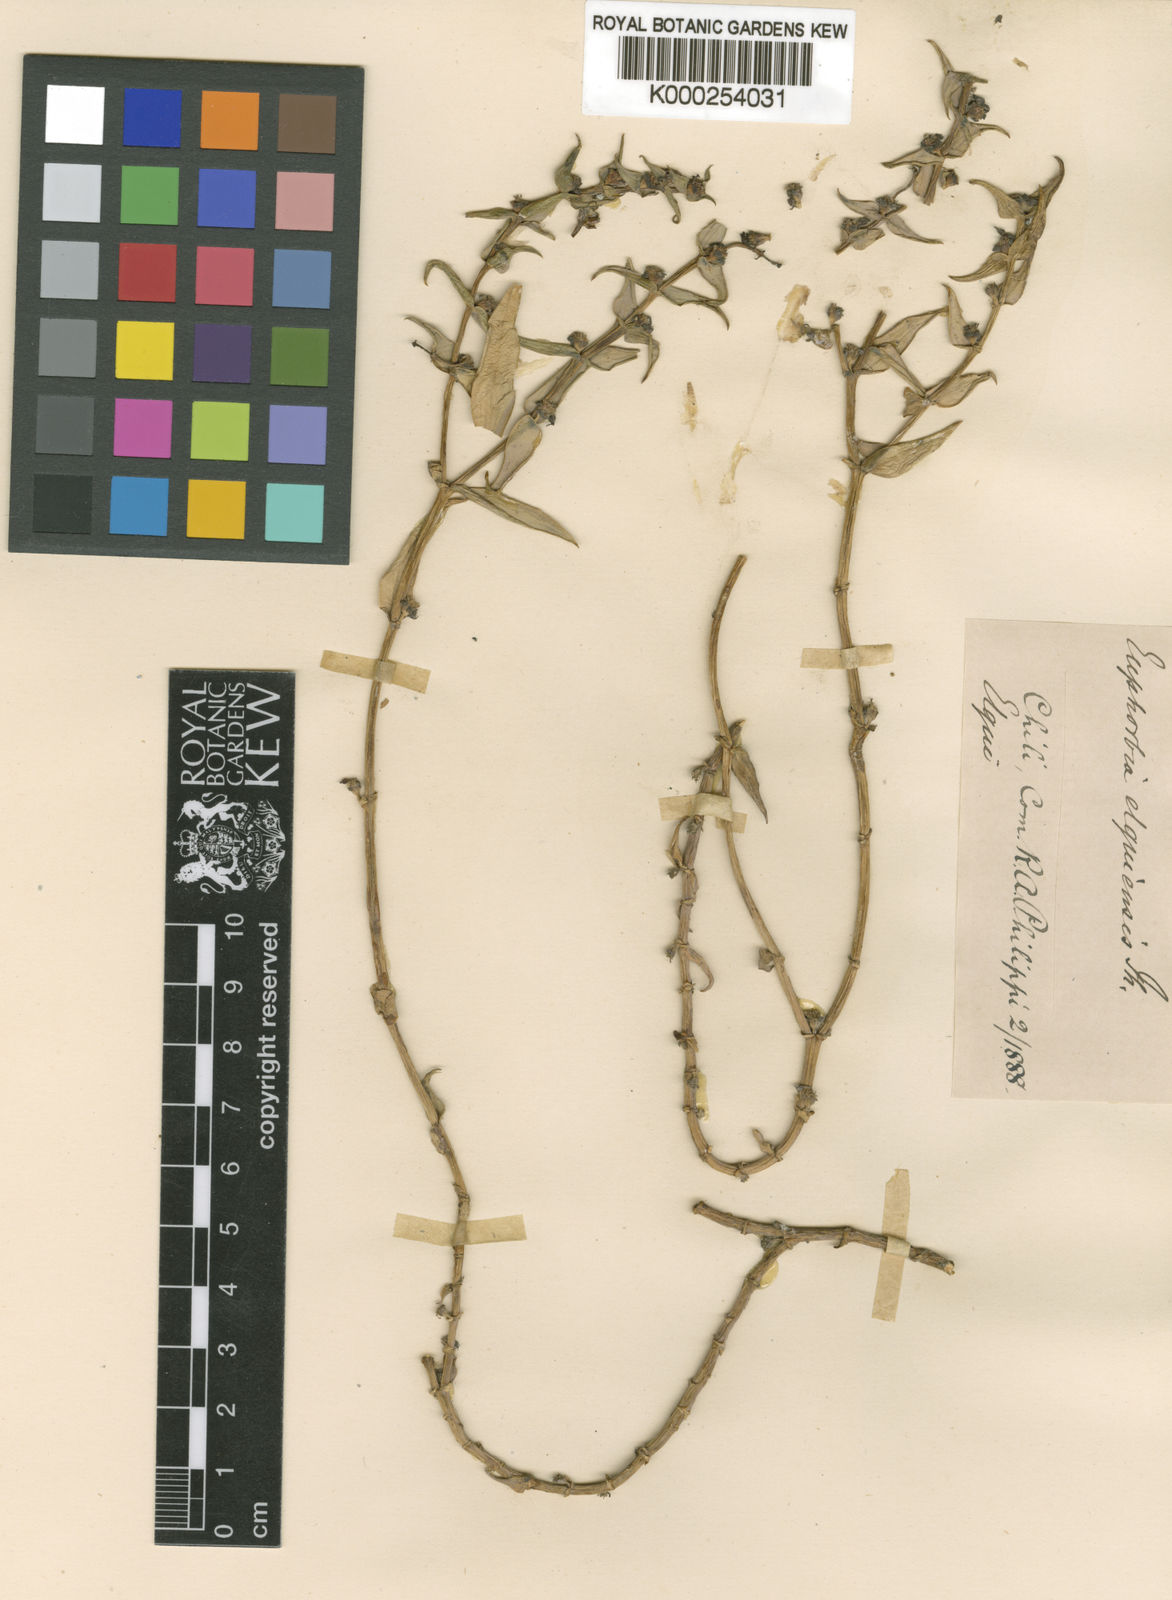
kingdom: Plantae
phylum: Tracheophyta
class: Magnoliopsida
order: Malpighiales
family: Euphorbiaceae
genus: Euphorbia
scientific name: Euphorbia elquiensis
